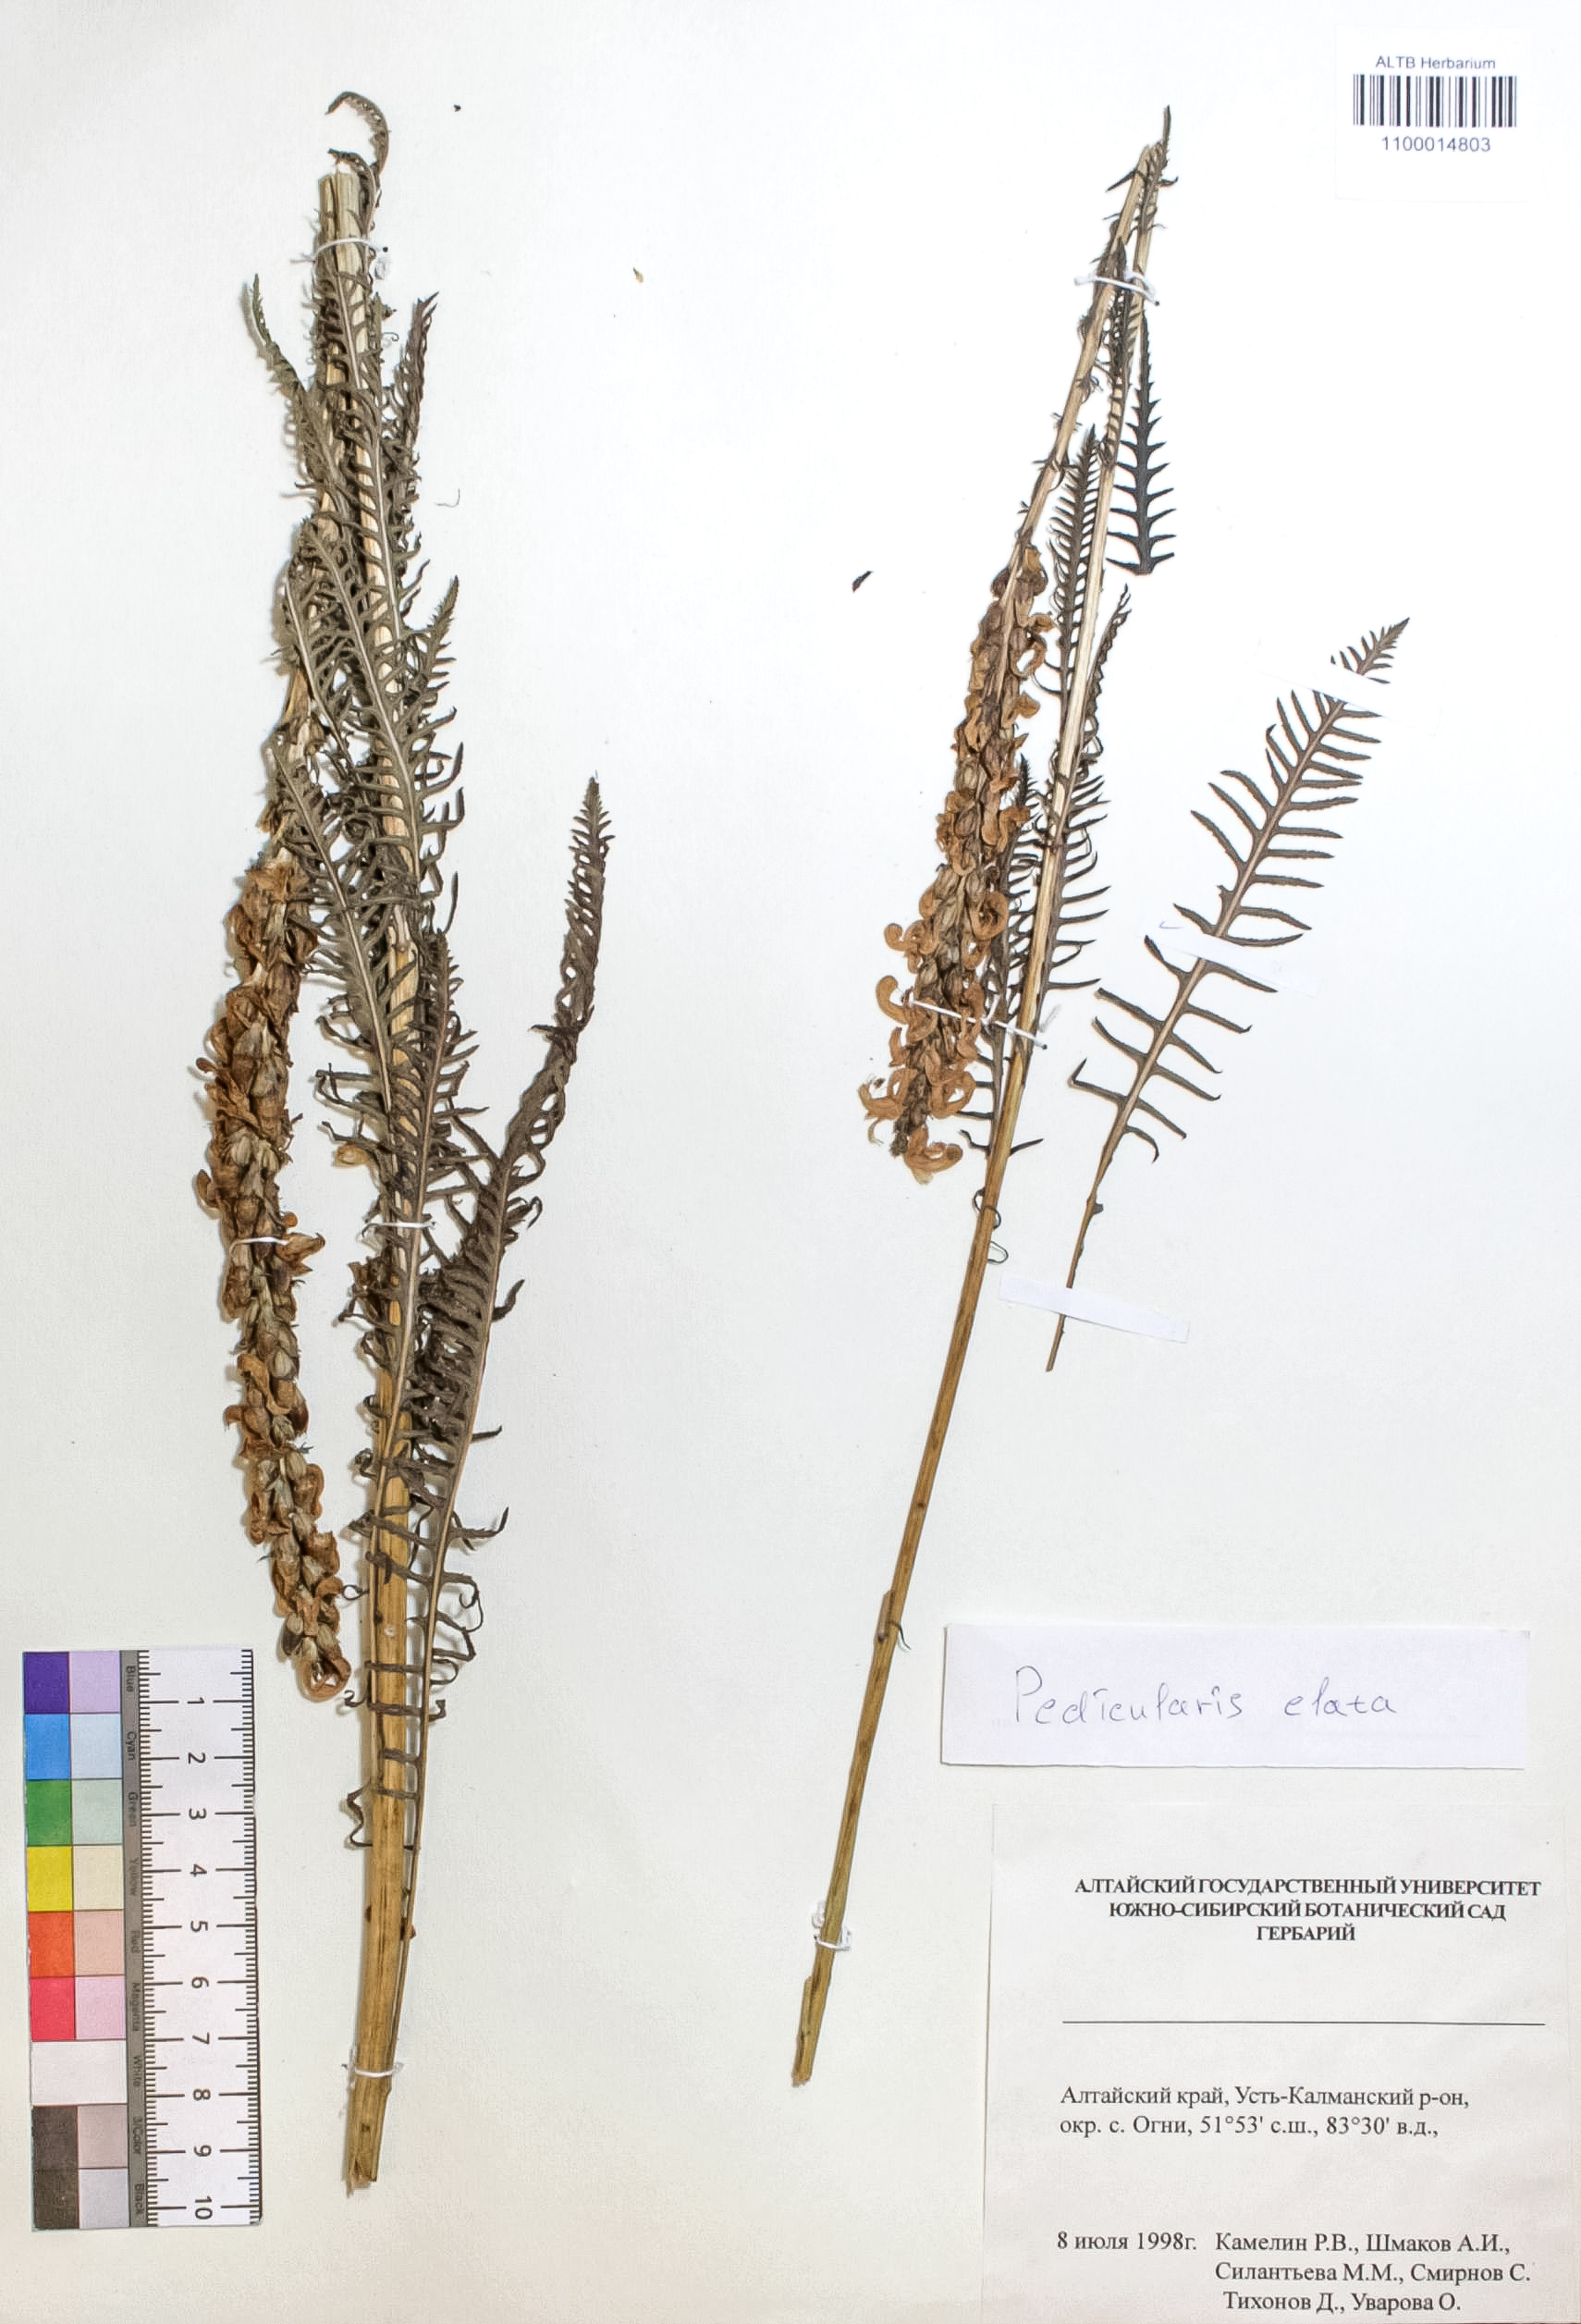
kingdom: Plantae
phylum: Tracheophyta
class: Magnoliopsida
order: Lamiales
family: Orobanchaceae
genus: Pedicularis
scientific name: Pedicularis elata
